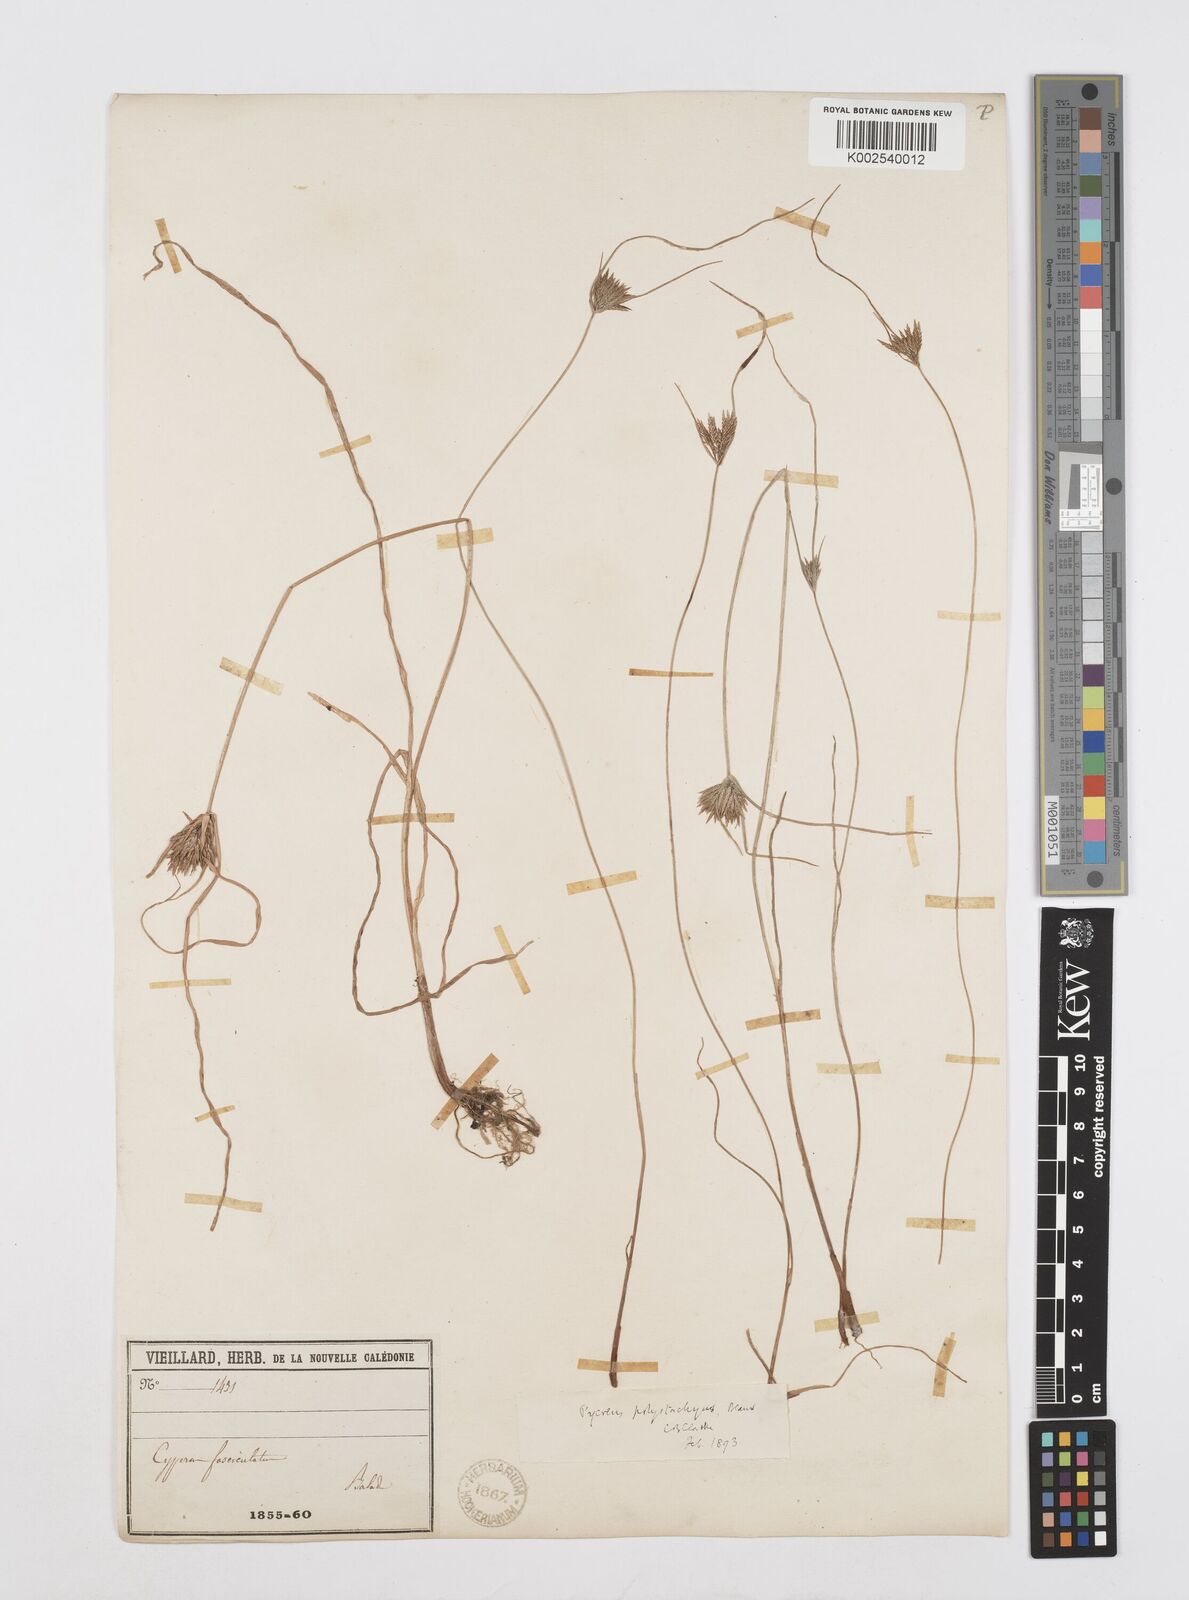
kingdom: Plantae
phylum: Tracheophyta
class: Liliopsida
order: Poales
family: Cyperaceae
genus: Cyperus
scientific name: Cyperus polystachyos
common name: Bunchy flat sedge
